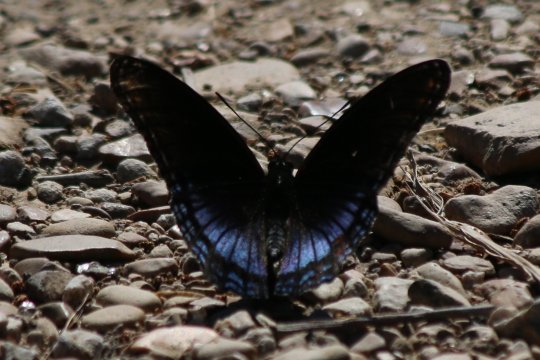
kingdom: Animalia
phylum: Arthropoda
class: Insecta
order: Lepidoptera
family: Nymphalidae
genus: Limenitis
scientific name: Limenitis arthemis
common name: Red-spotted Admiral
